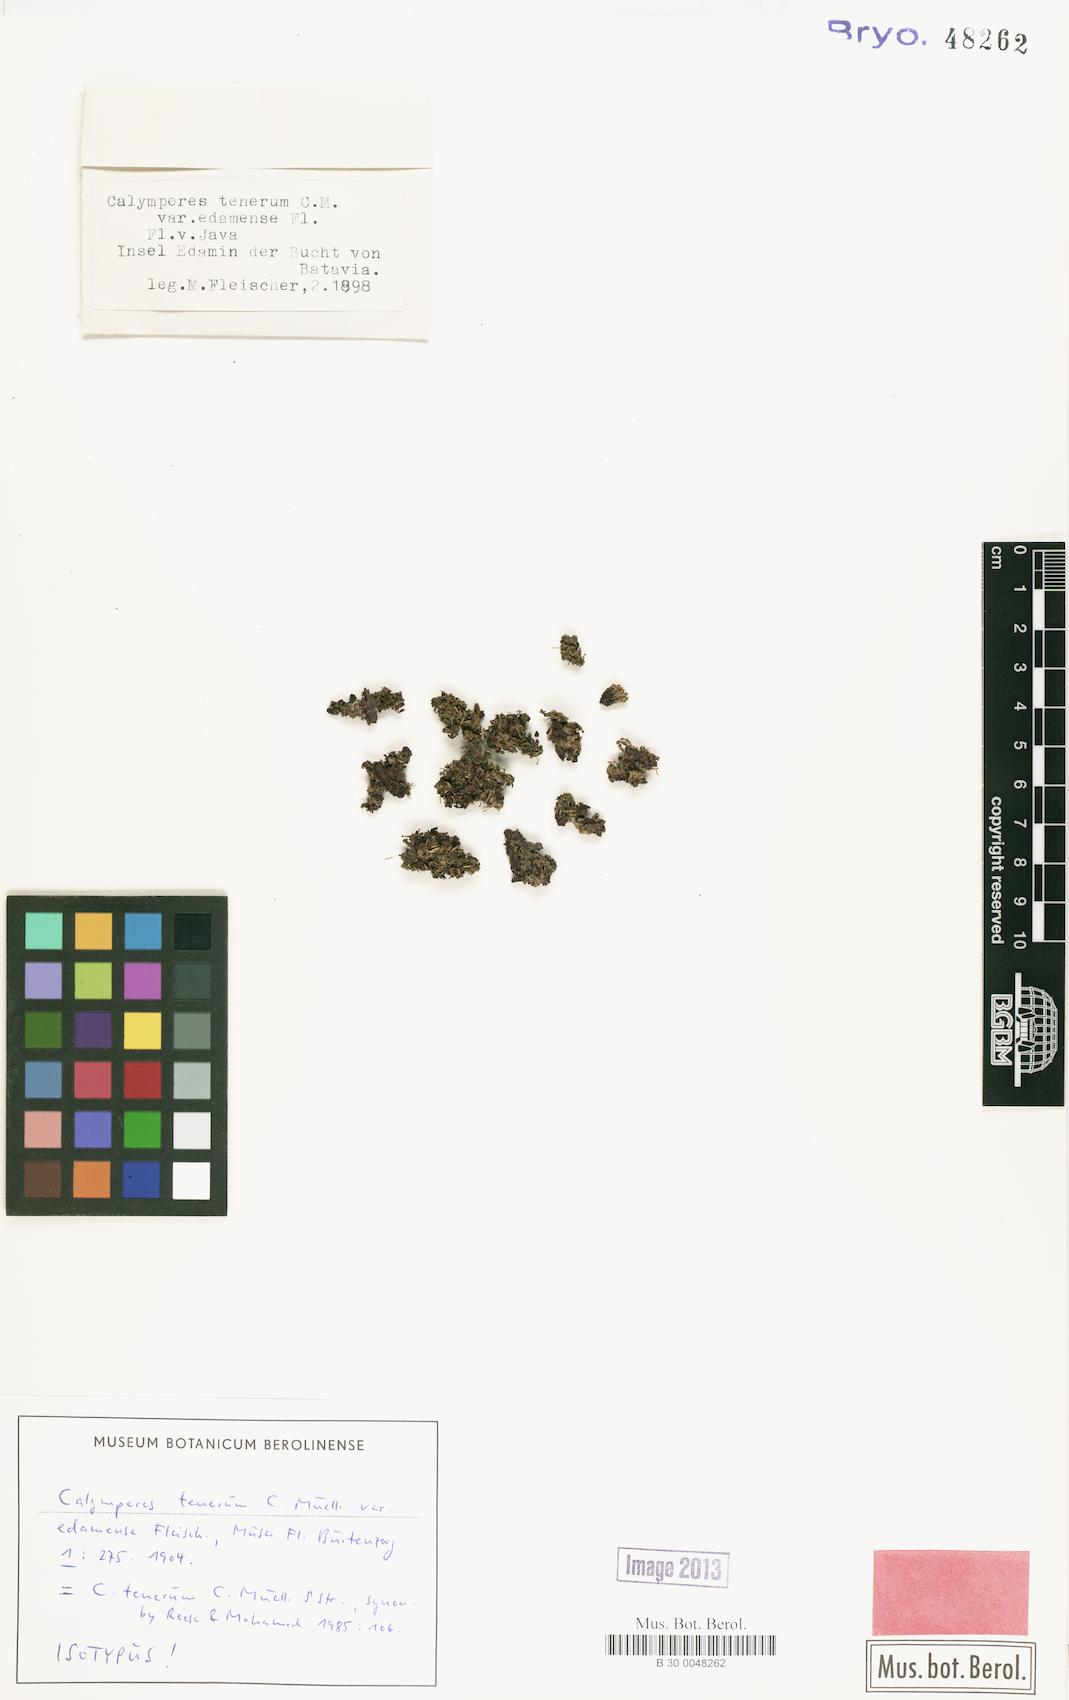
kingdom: Plantae
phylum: Bryophyta
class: Bryopsida
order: Dicranales
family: Calymperaceae
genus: Calymperes
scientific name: Calymperes tenerum
